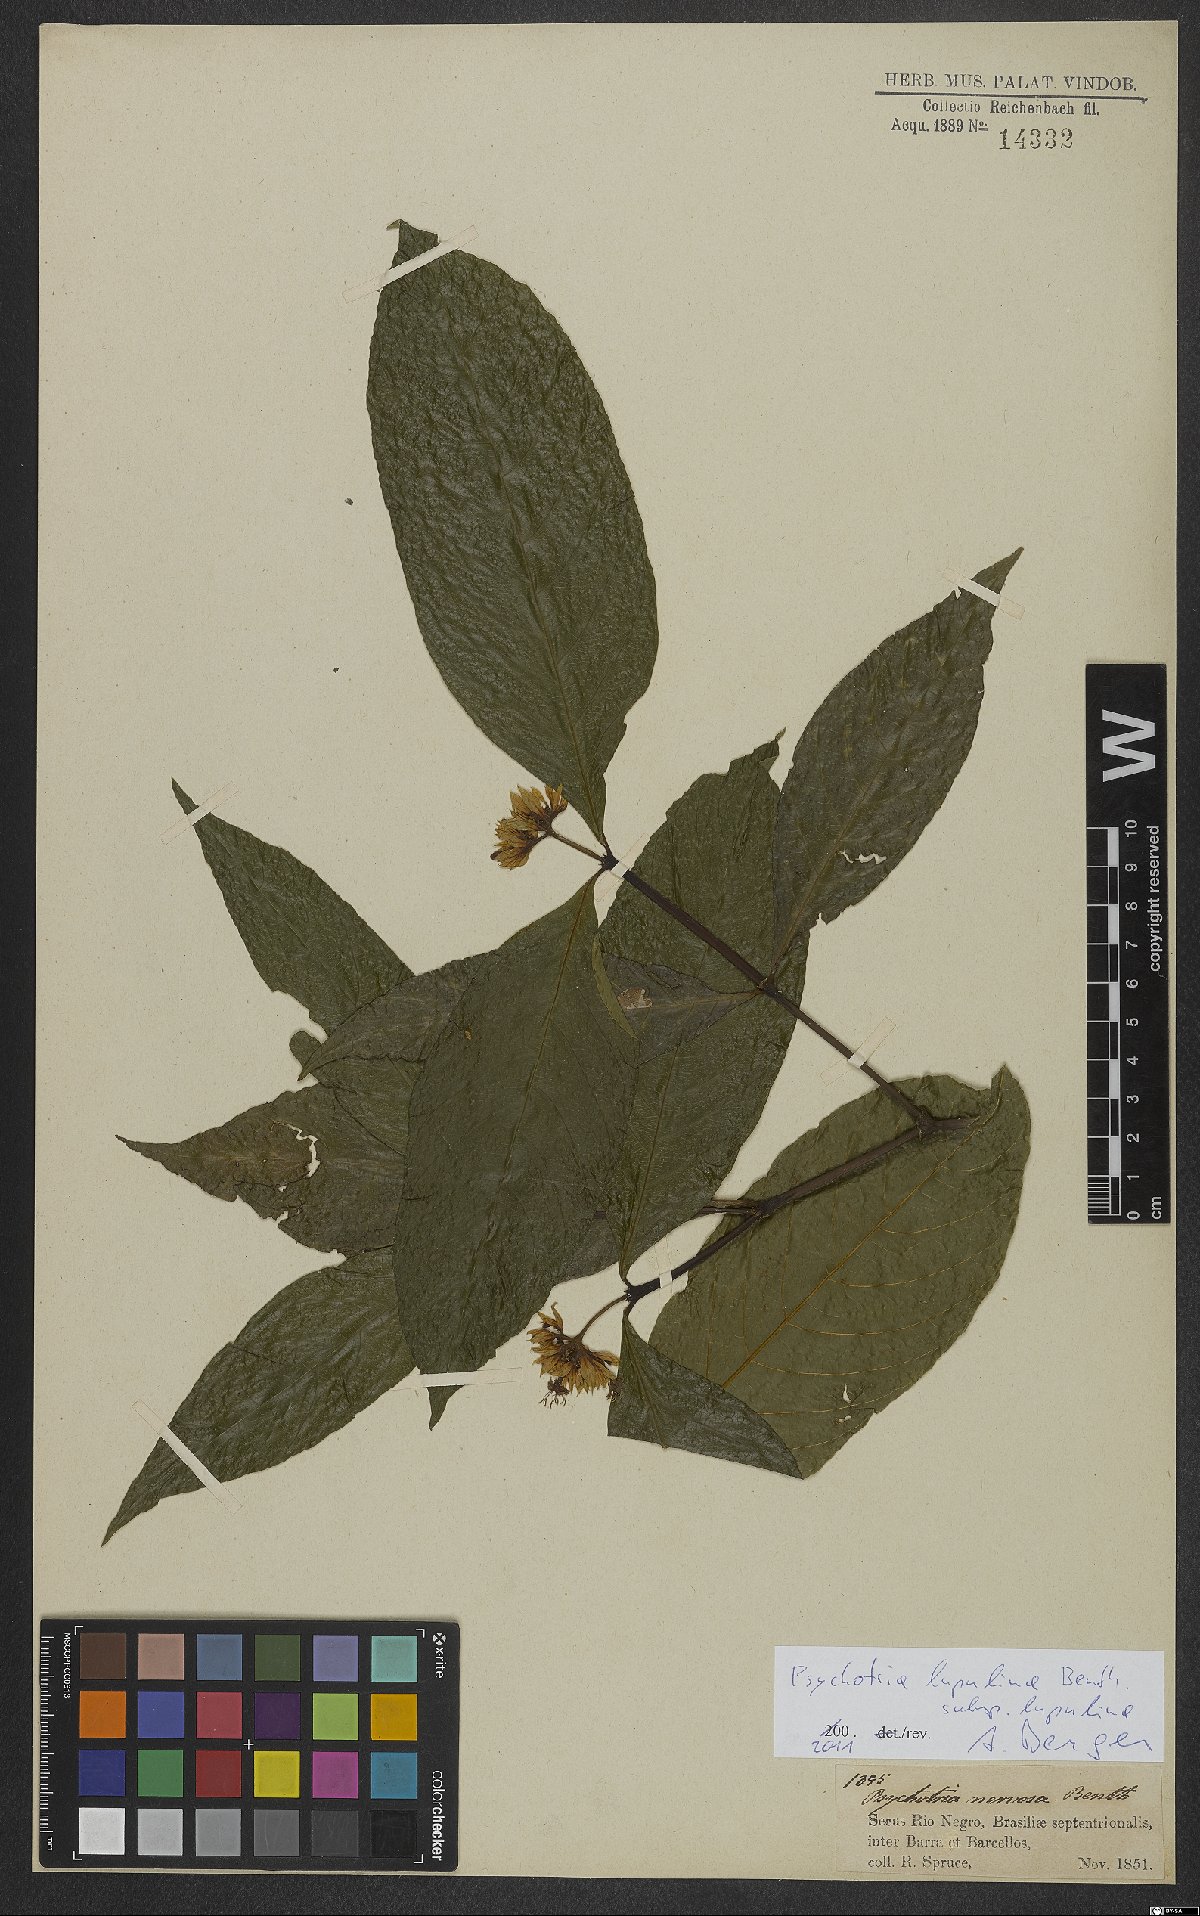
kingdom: Plantae
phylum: Tracheophyta
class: Magnoliopsida
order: Gentianales
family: Rubiaceae
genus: Palicourea
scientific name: Palicourea justiciifolia
